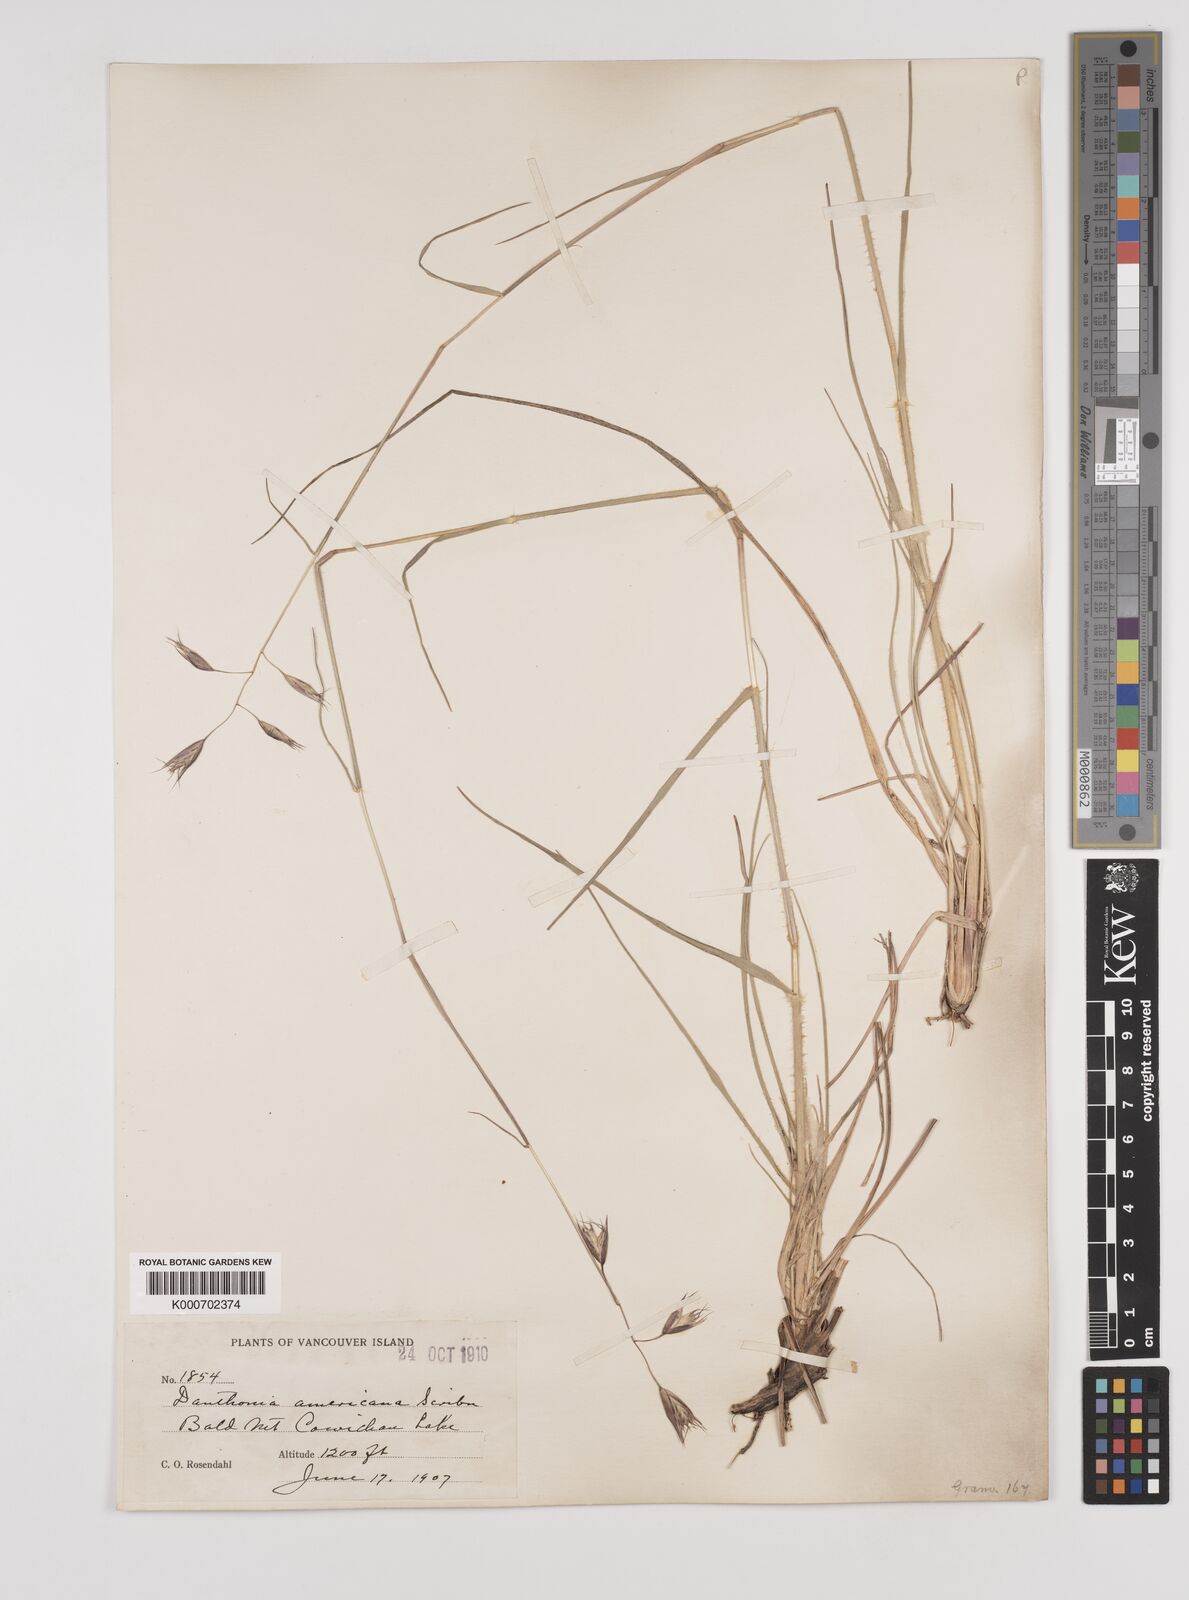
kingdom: Plantae
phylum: Tracheophyta
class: Liliopsida
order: Poales
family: Poaceae
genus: Danthonia
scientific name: Danthonia californica
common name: California oat grass
